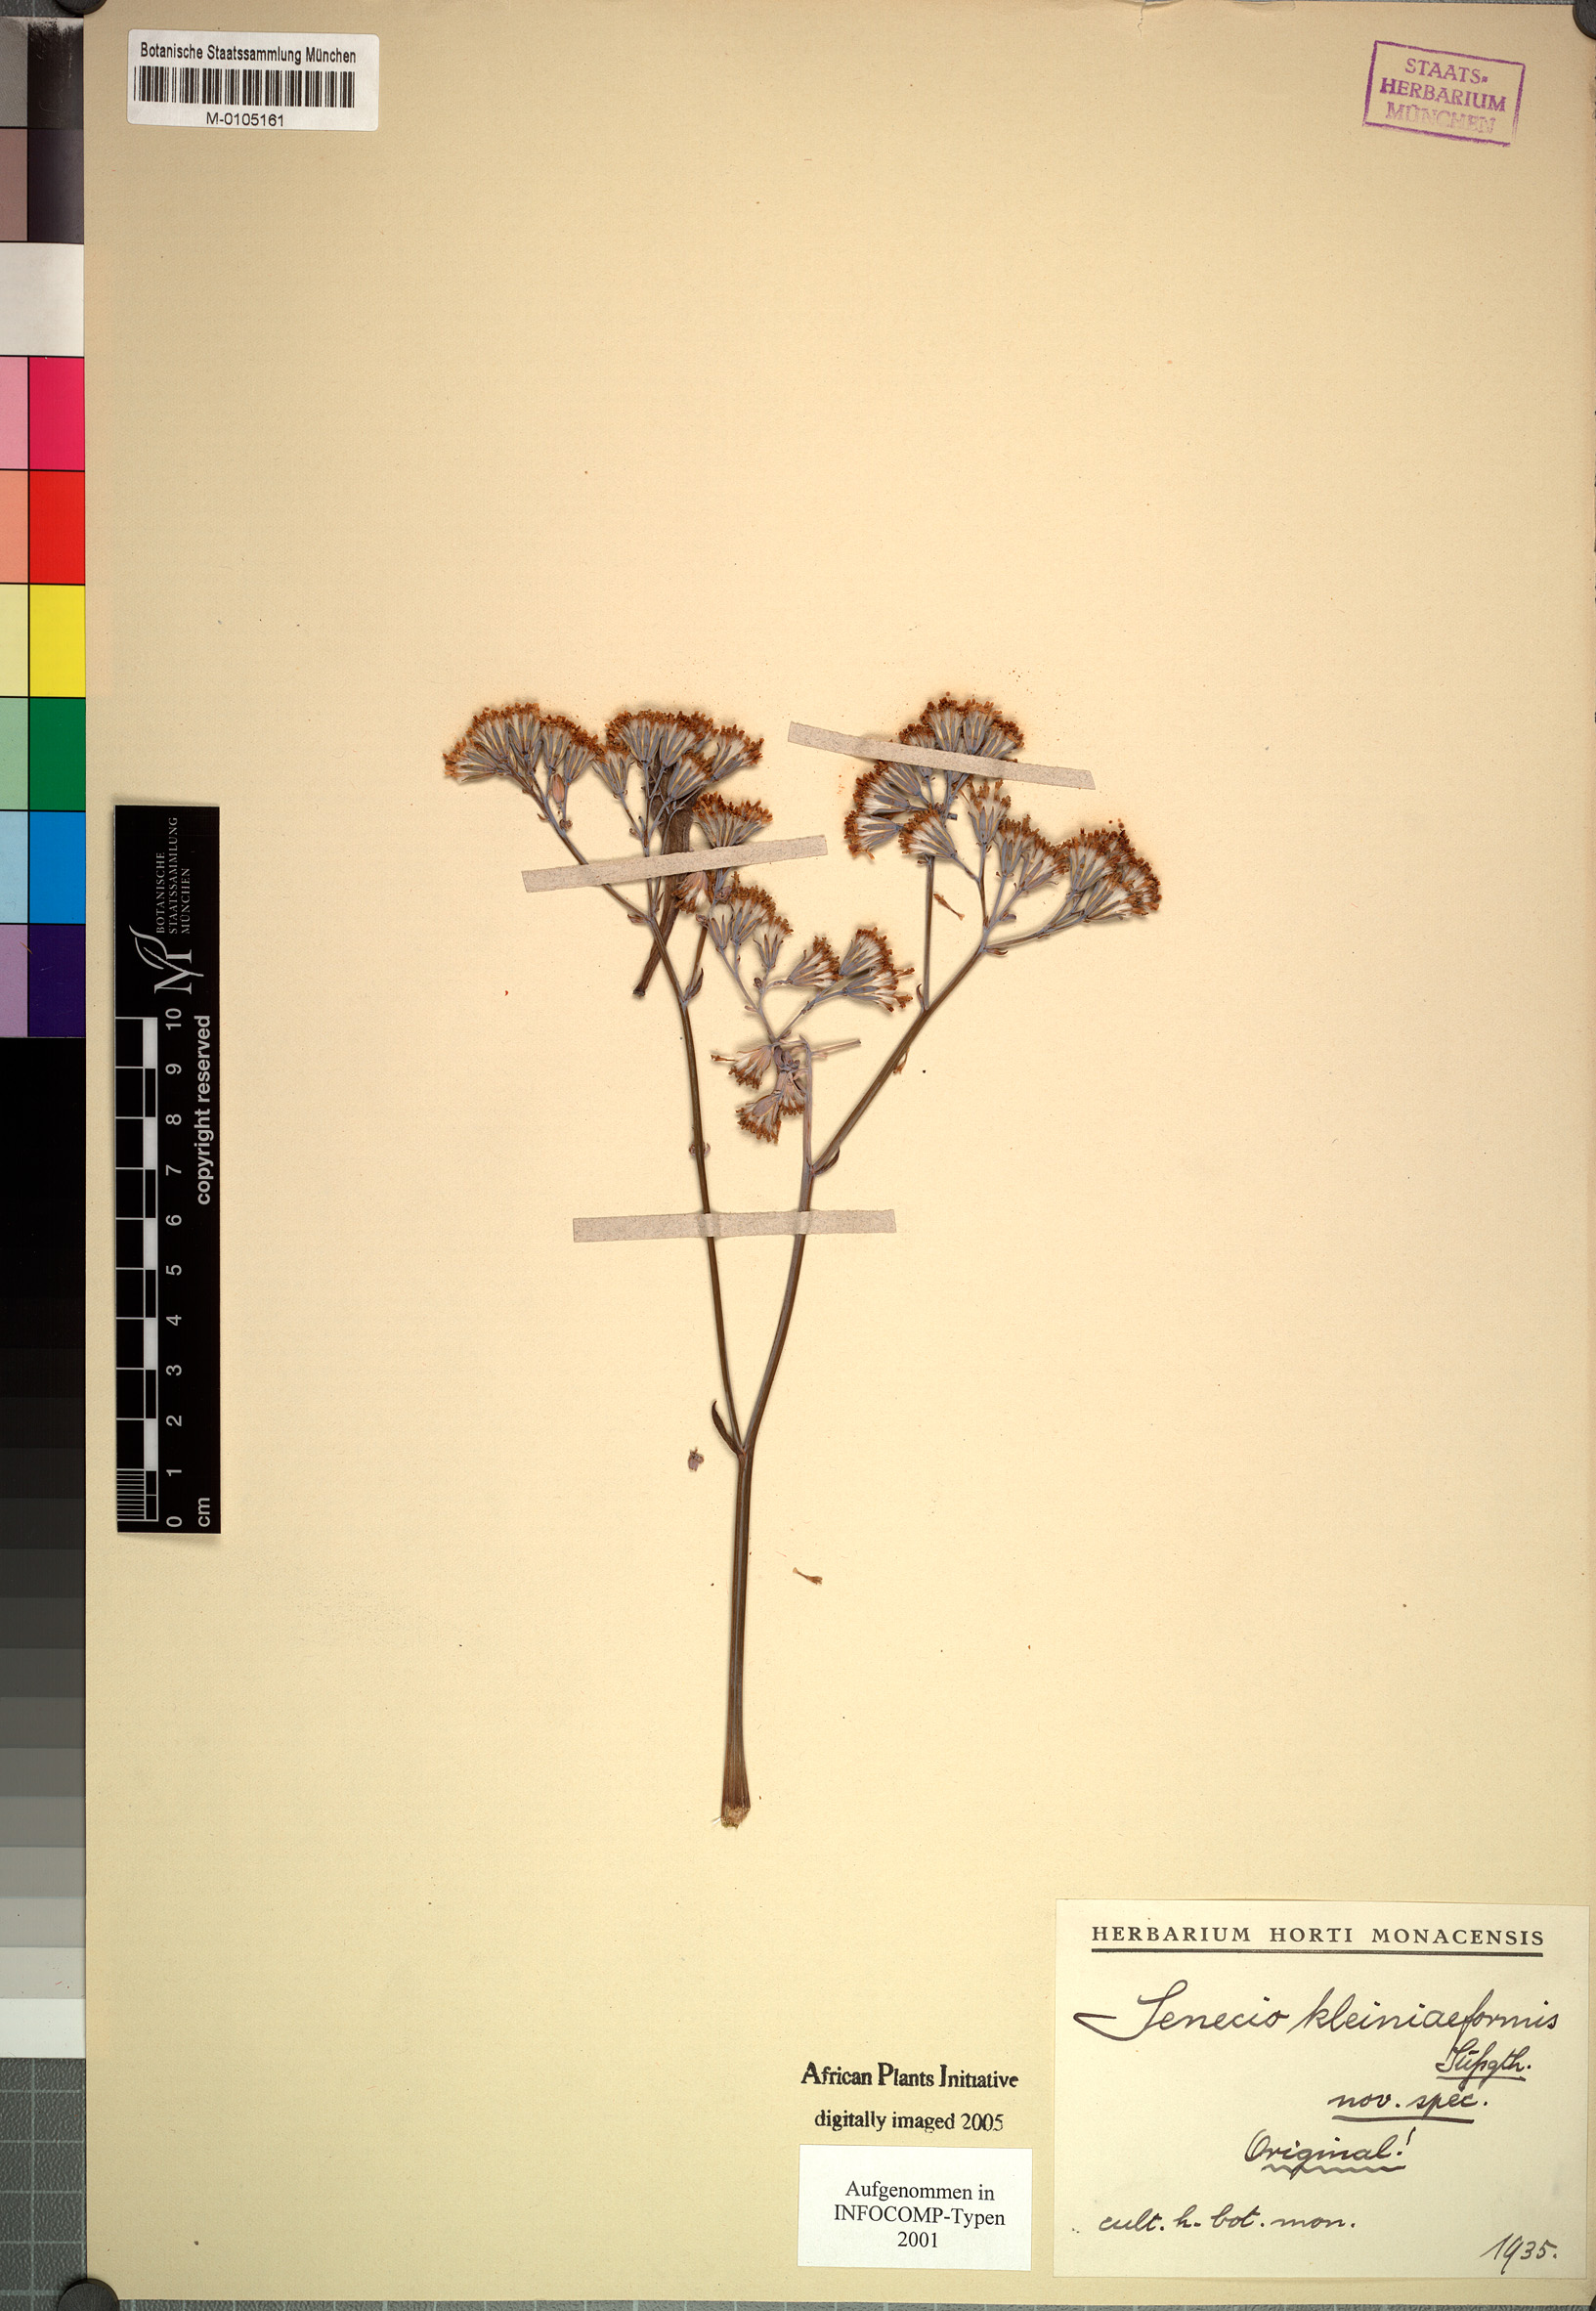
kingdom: Plantae
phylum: Tracheophyta
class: Magnoliopsida
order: Asterales
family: Asteraceae
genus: Senecio
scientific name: Senecio kleiniaeformis
